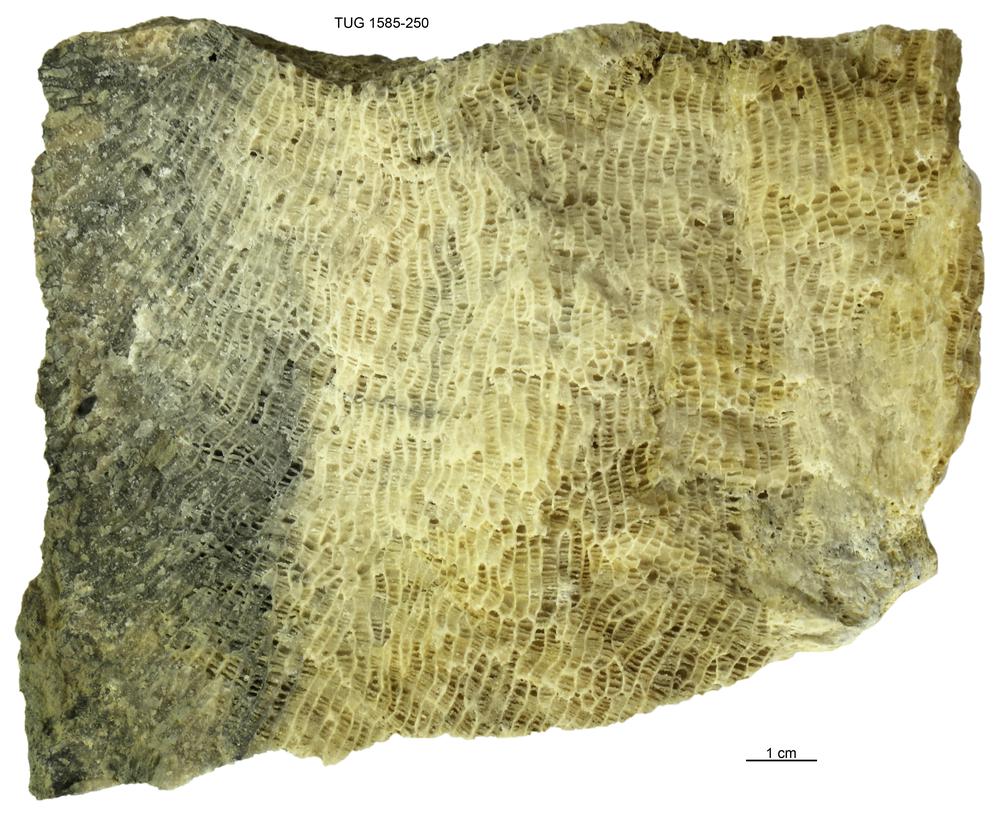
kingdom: Animalia
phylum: Cnidaria
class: Anthozoa
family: Favositidae
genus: Saffordophyllum
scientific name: Saffordophyllum
